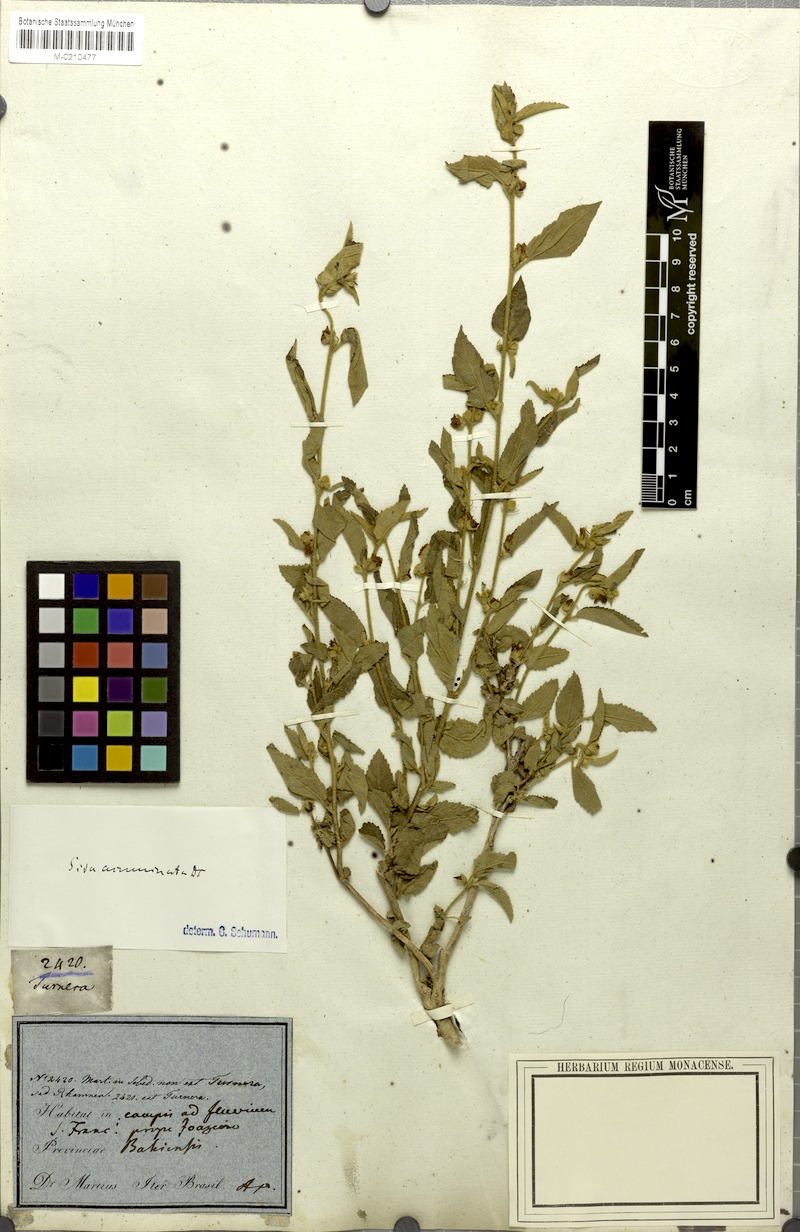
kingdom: Plantae
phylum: Tracheophyta
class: Magnoliopsida
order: Malvales
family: Malvaceae
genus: Sidastrum
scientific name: Sidastrum multiflorum
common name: Manyflower sandmallow
